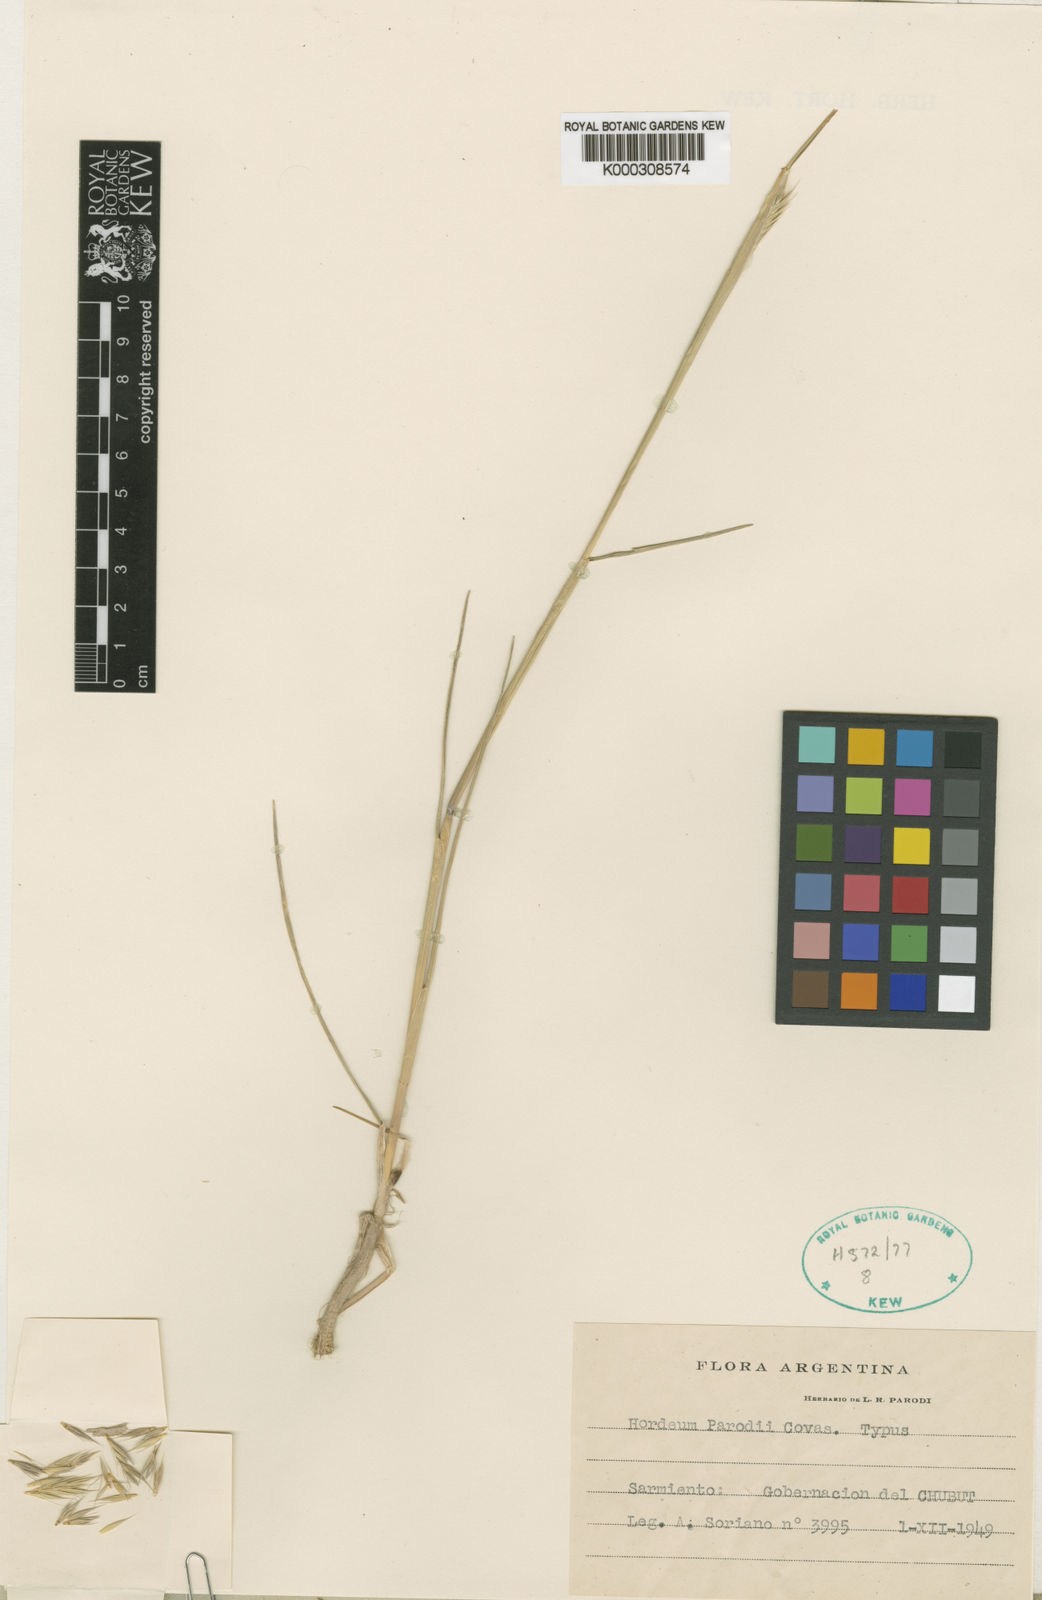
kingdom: Plantae
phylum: Tracheophyta
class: Liliopsida
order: Poales
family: Poaceae
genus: Hordeum
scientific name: Hordeum parodii
